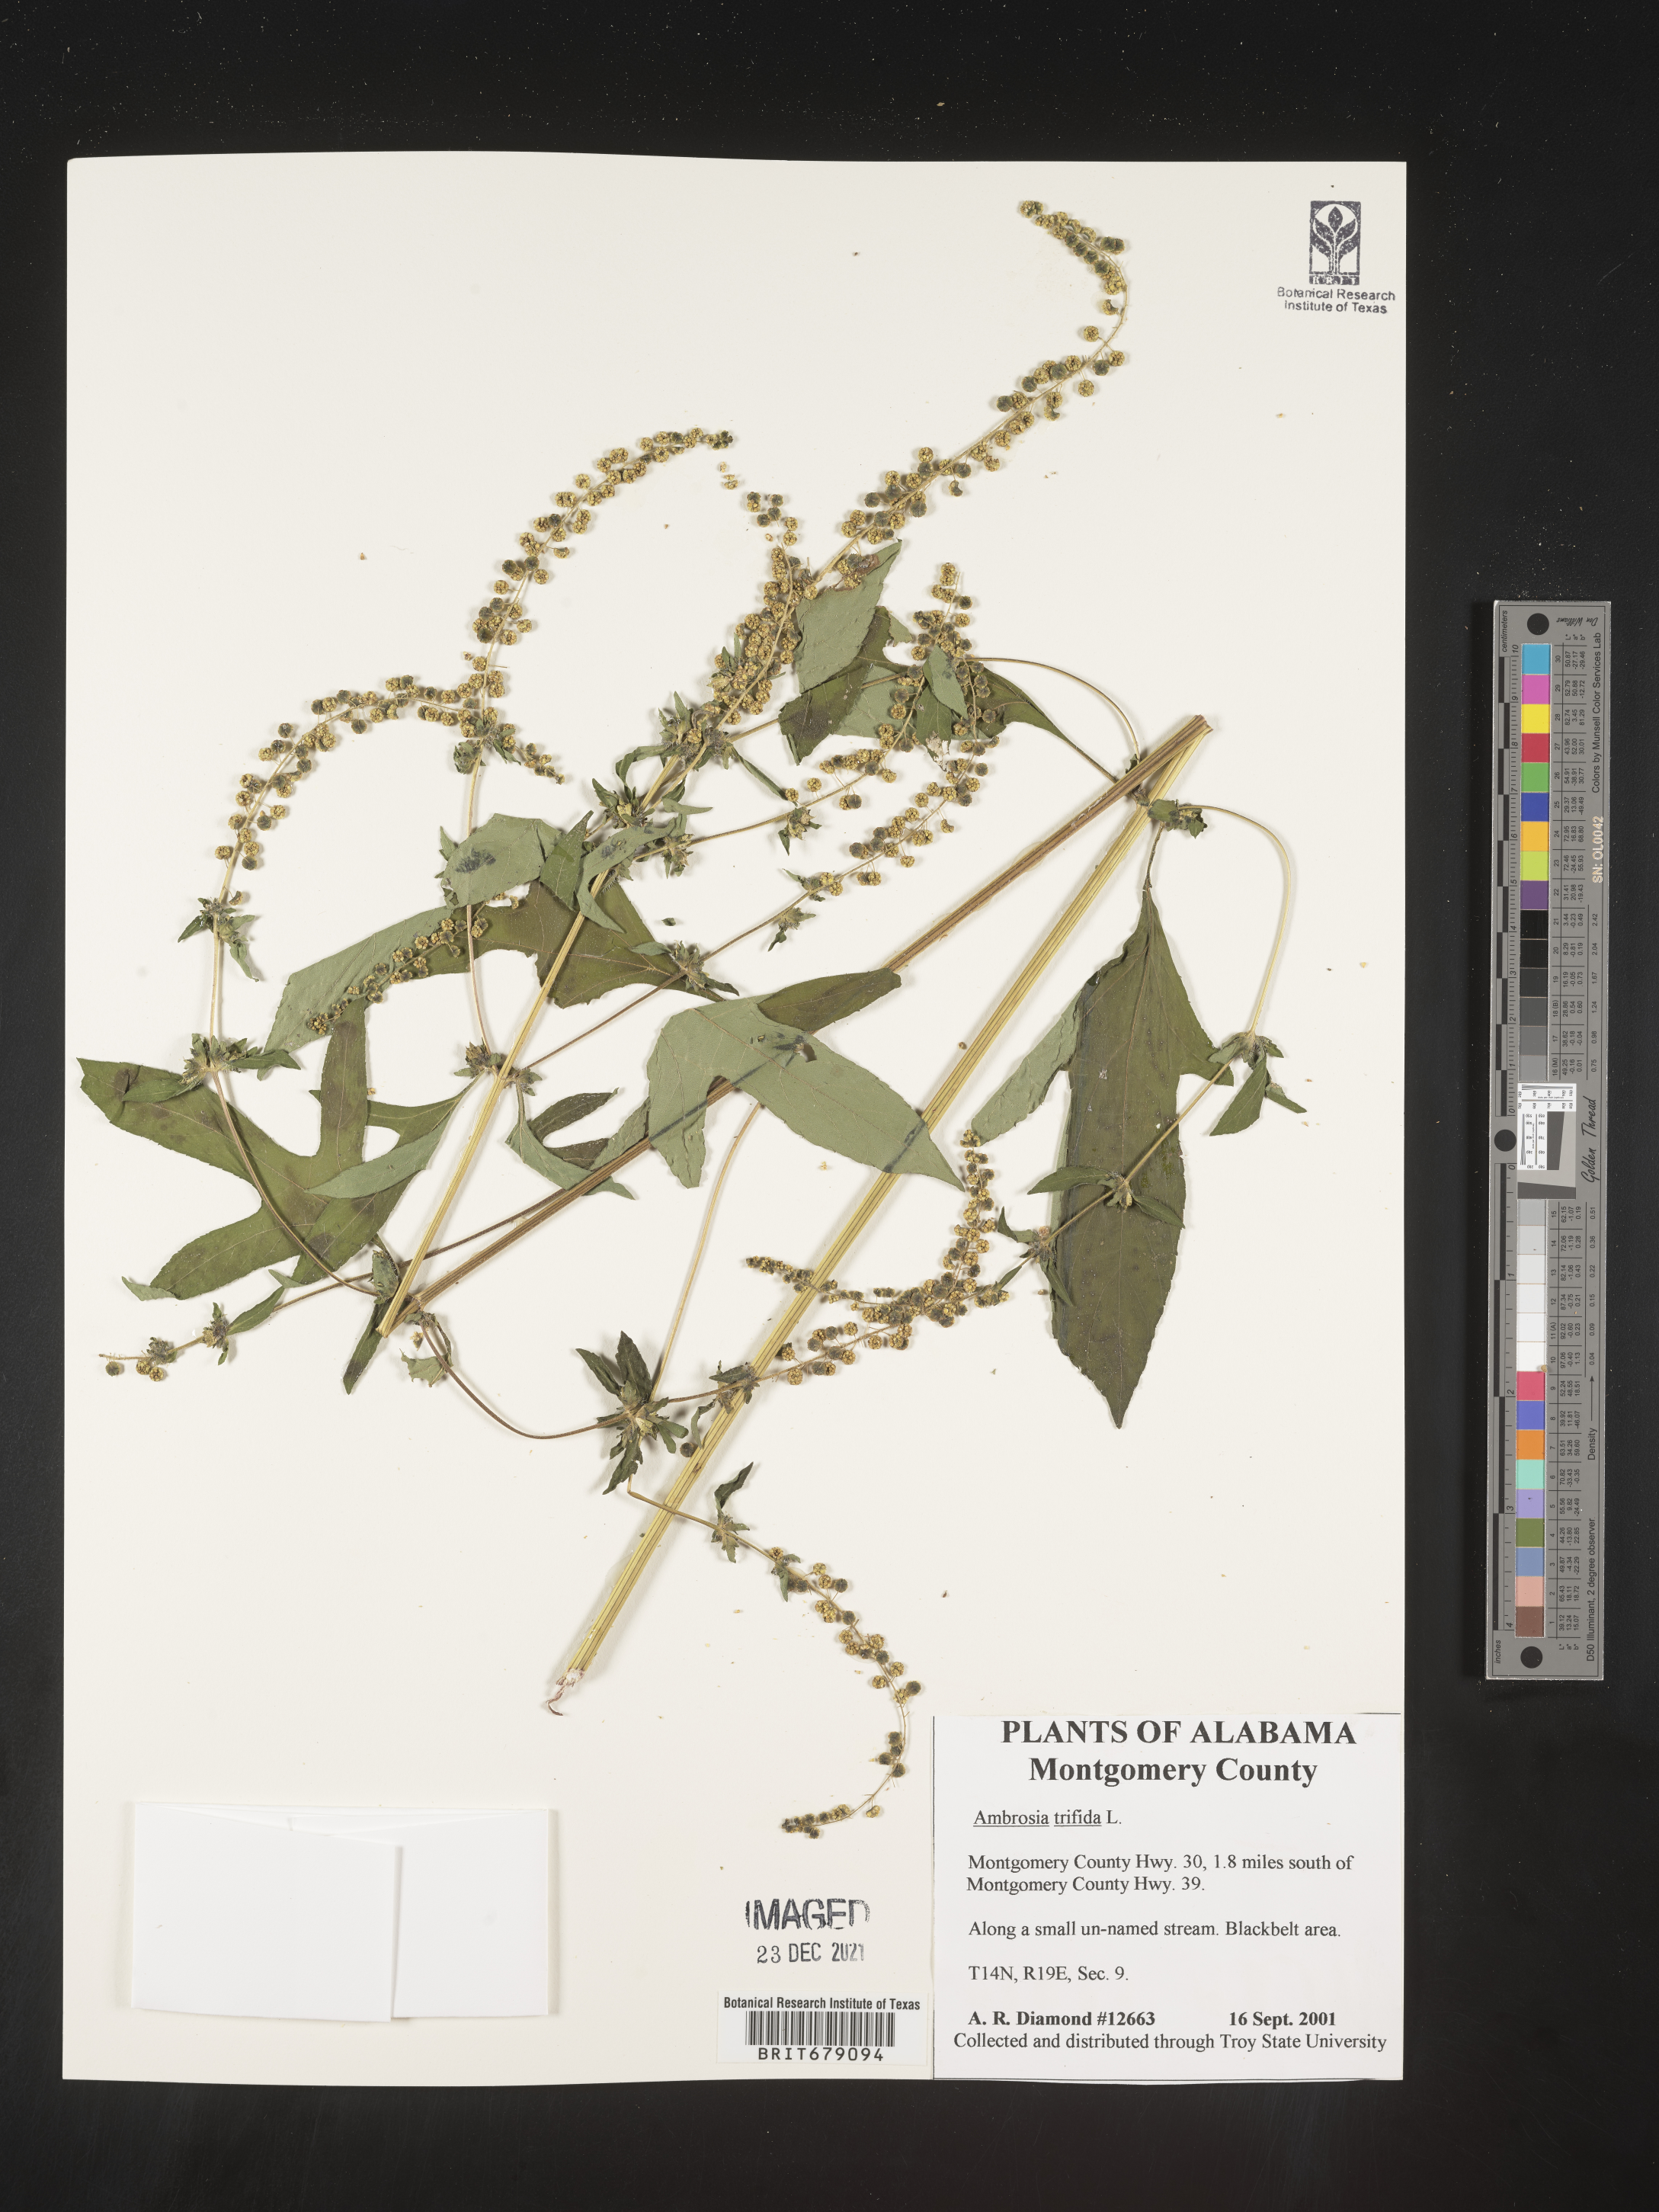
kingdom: Plantae
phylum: Tracheophyta
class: Magnoliopsida
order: Asterales
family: Asteraceae
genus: Ambrosia
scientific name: Ambrosia trifida
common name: Giant ragweed
